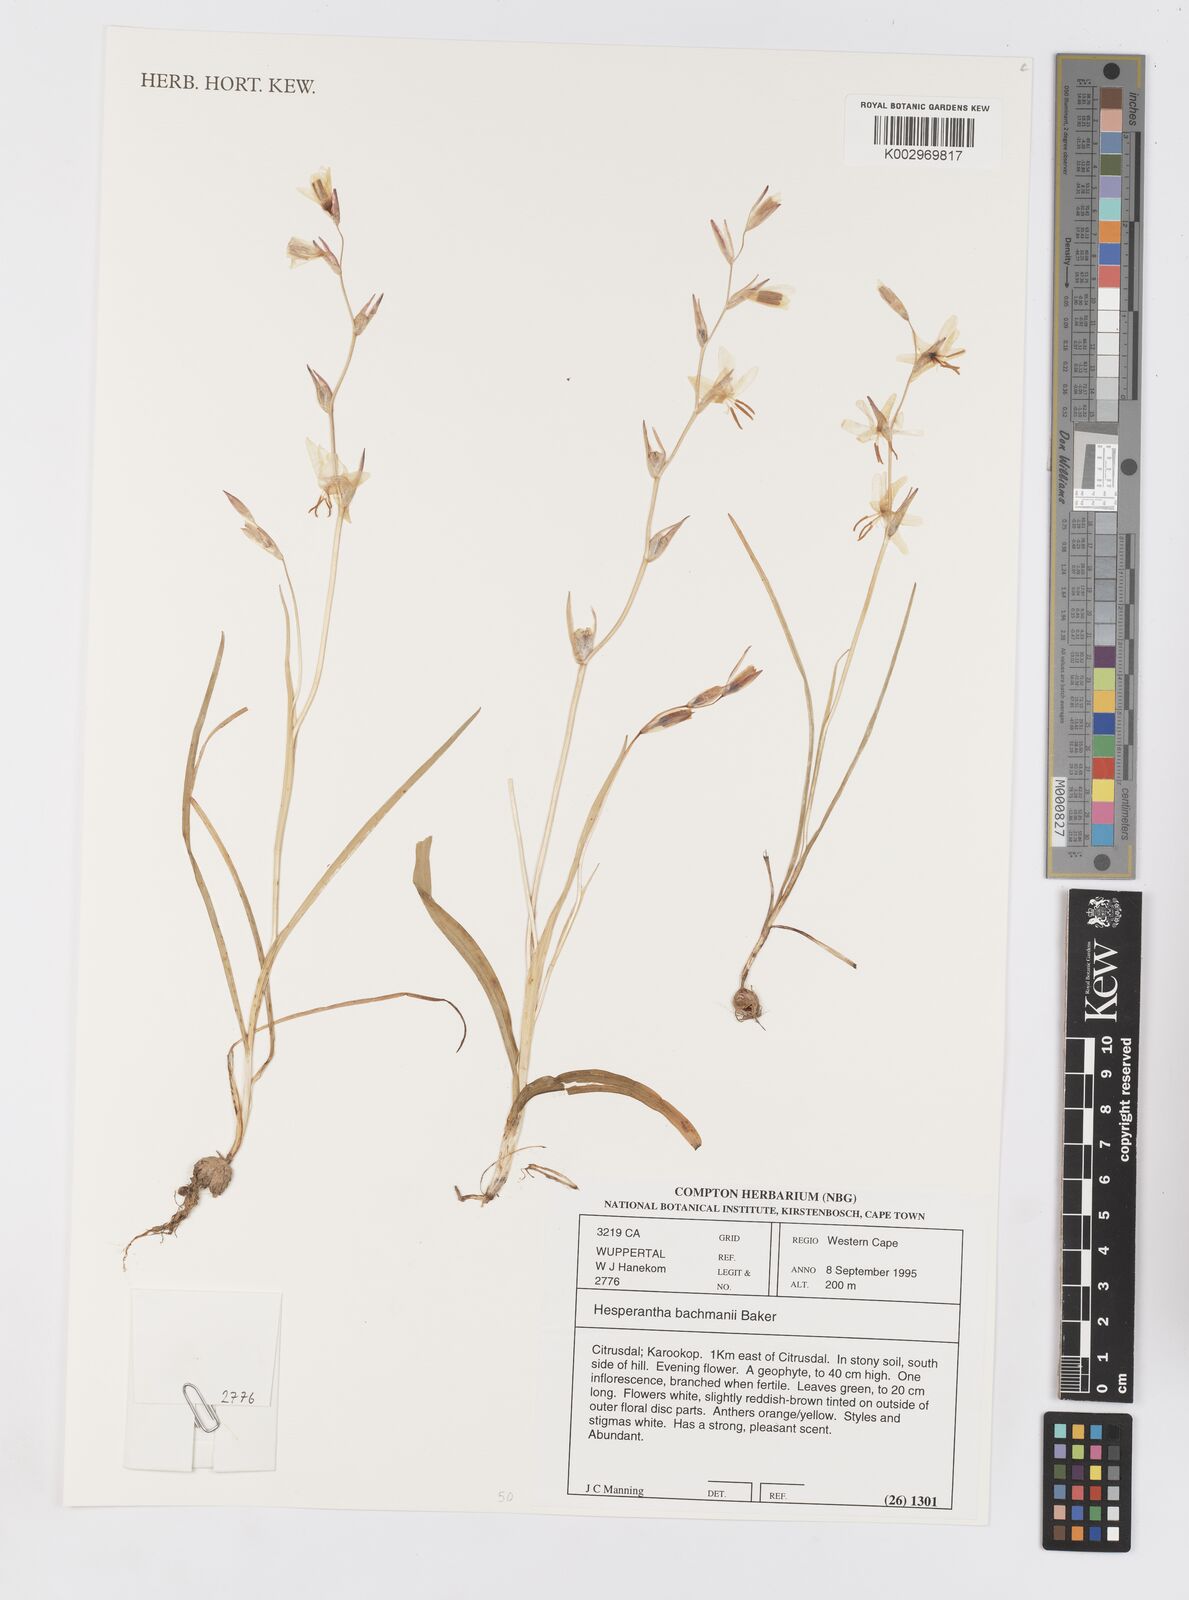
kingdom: Plantae
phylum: Tracheophyta
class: Liliopsida
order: Asparagales
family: Iridaceae
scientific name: Iridaceae
